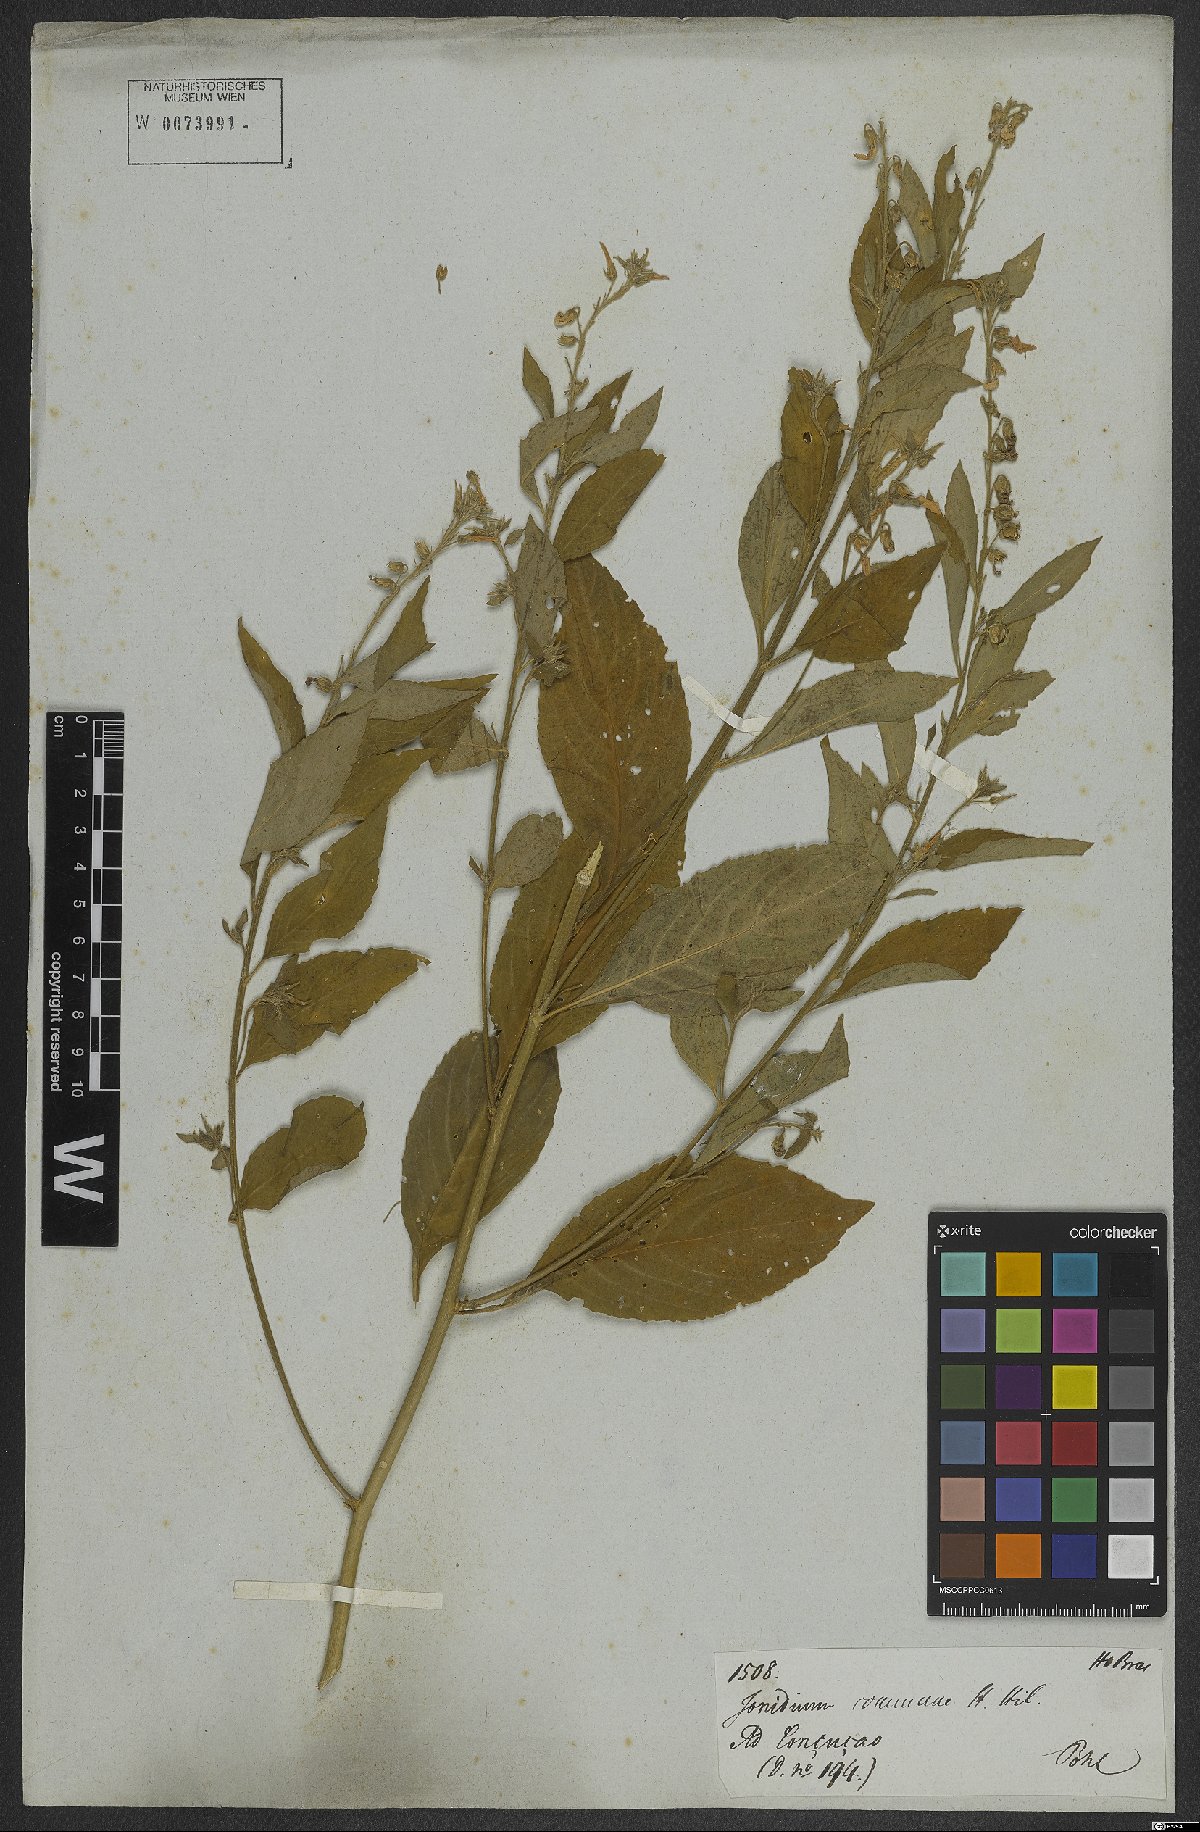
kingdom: Plantae
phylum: Tracheophyta
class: Magnoliopsida
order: Malpighiales
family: Violaceae
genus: Pombalia
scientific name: Pombalia communis
